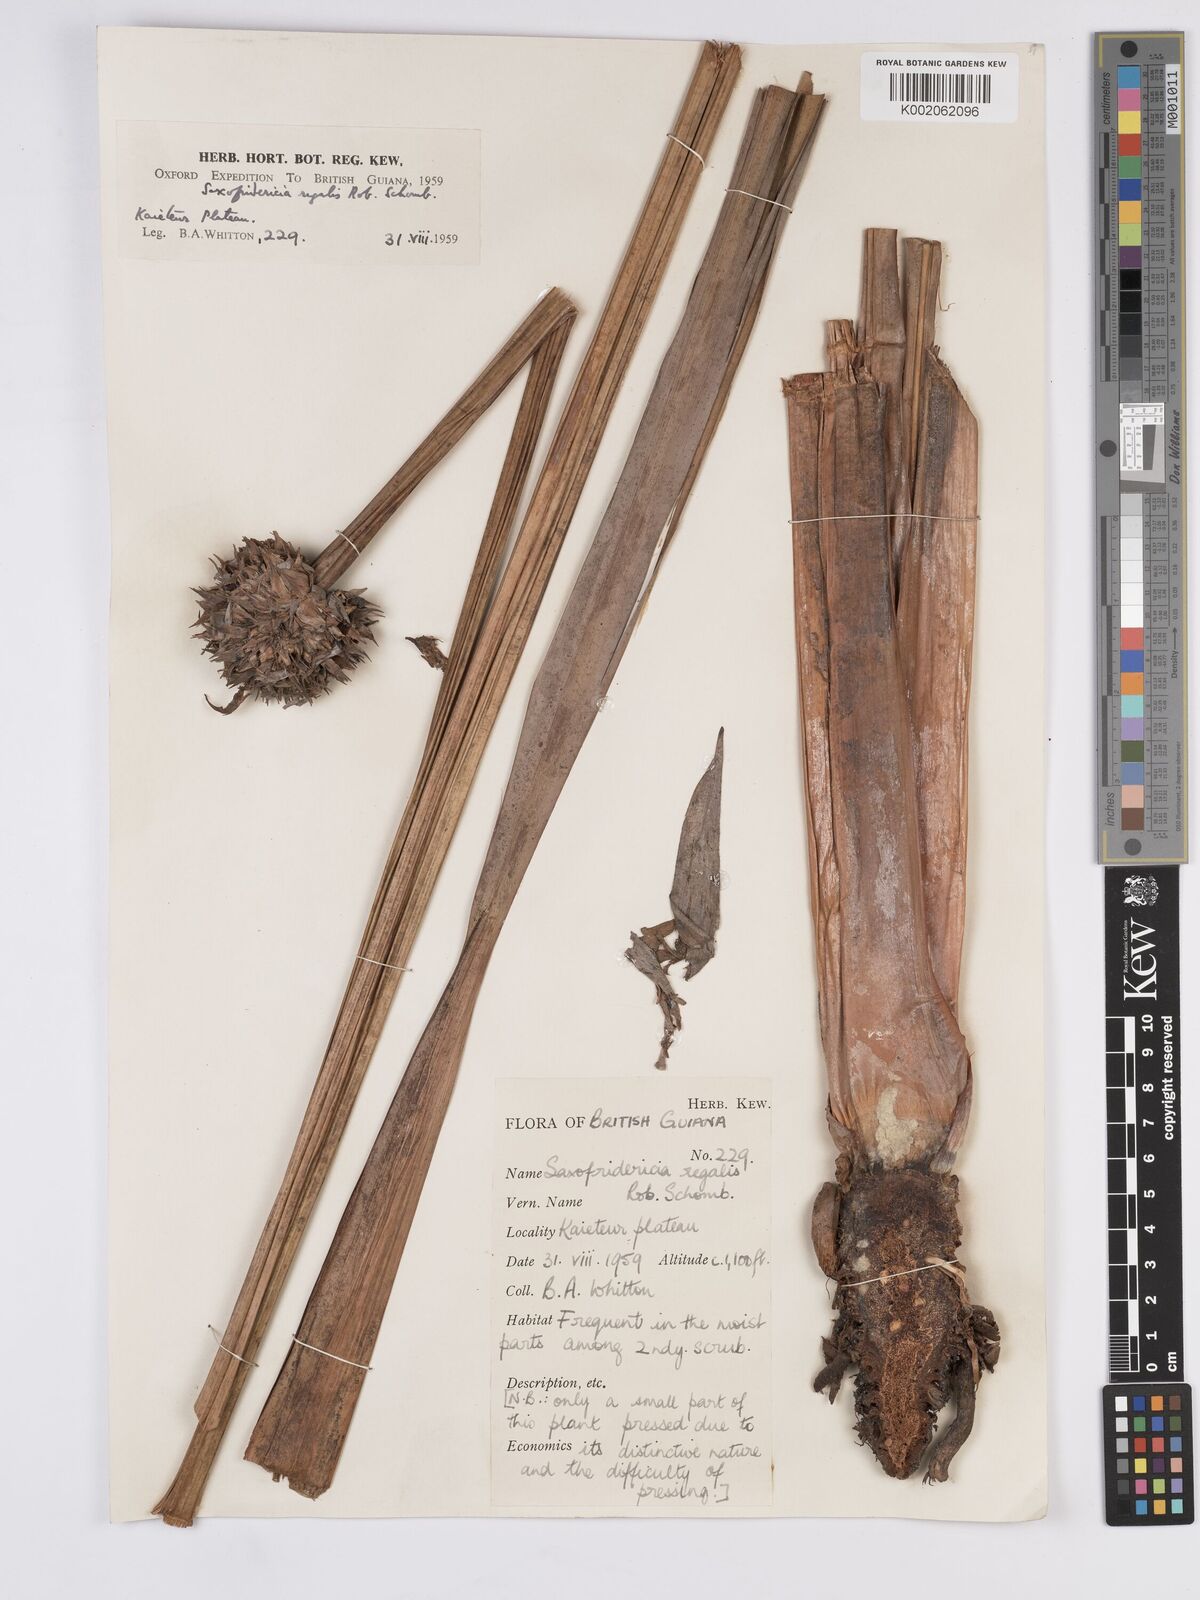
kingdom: Plantae
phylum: Tracheophyta
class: Liliopsida
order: Poales
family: Rapateaceae
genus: Saxofridericia
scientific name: Saxofridericia regalis
